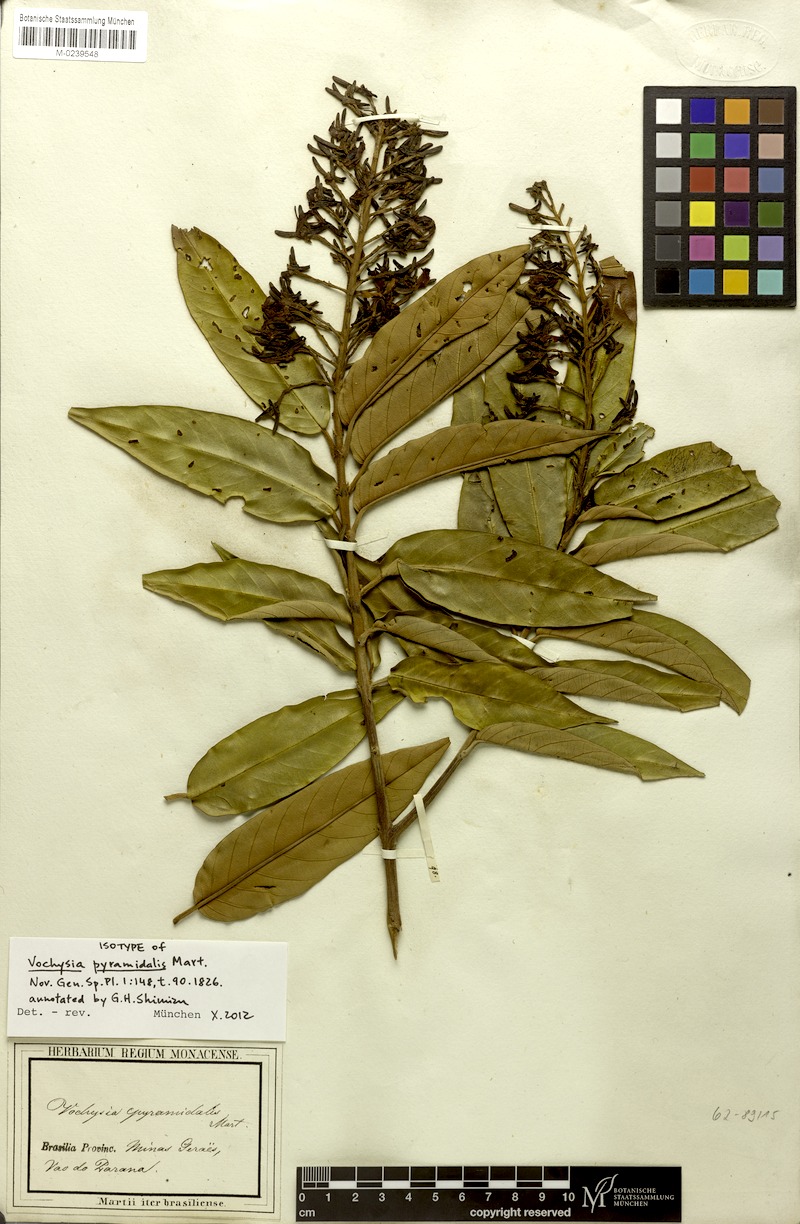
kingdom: Plantae
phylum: Tracheophyta
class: Magnoliopsida
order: Myrtales
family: Vochysiaceae
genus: Vochysia
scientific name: Vochysia pyramidalis
